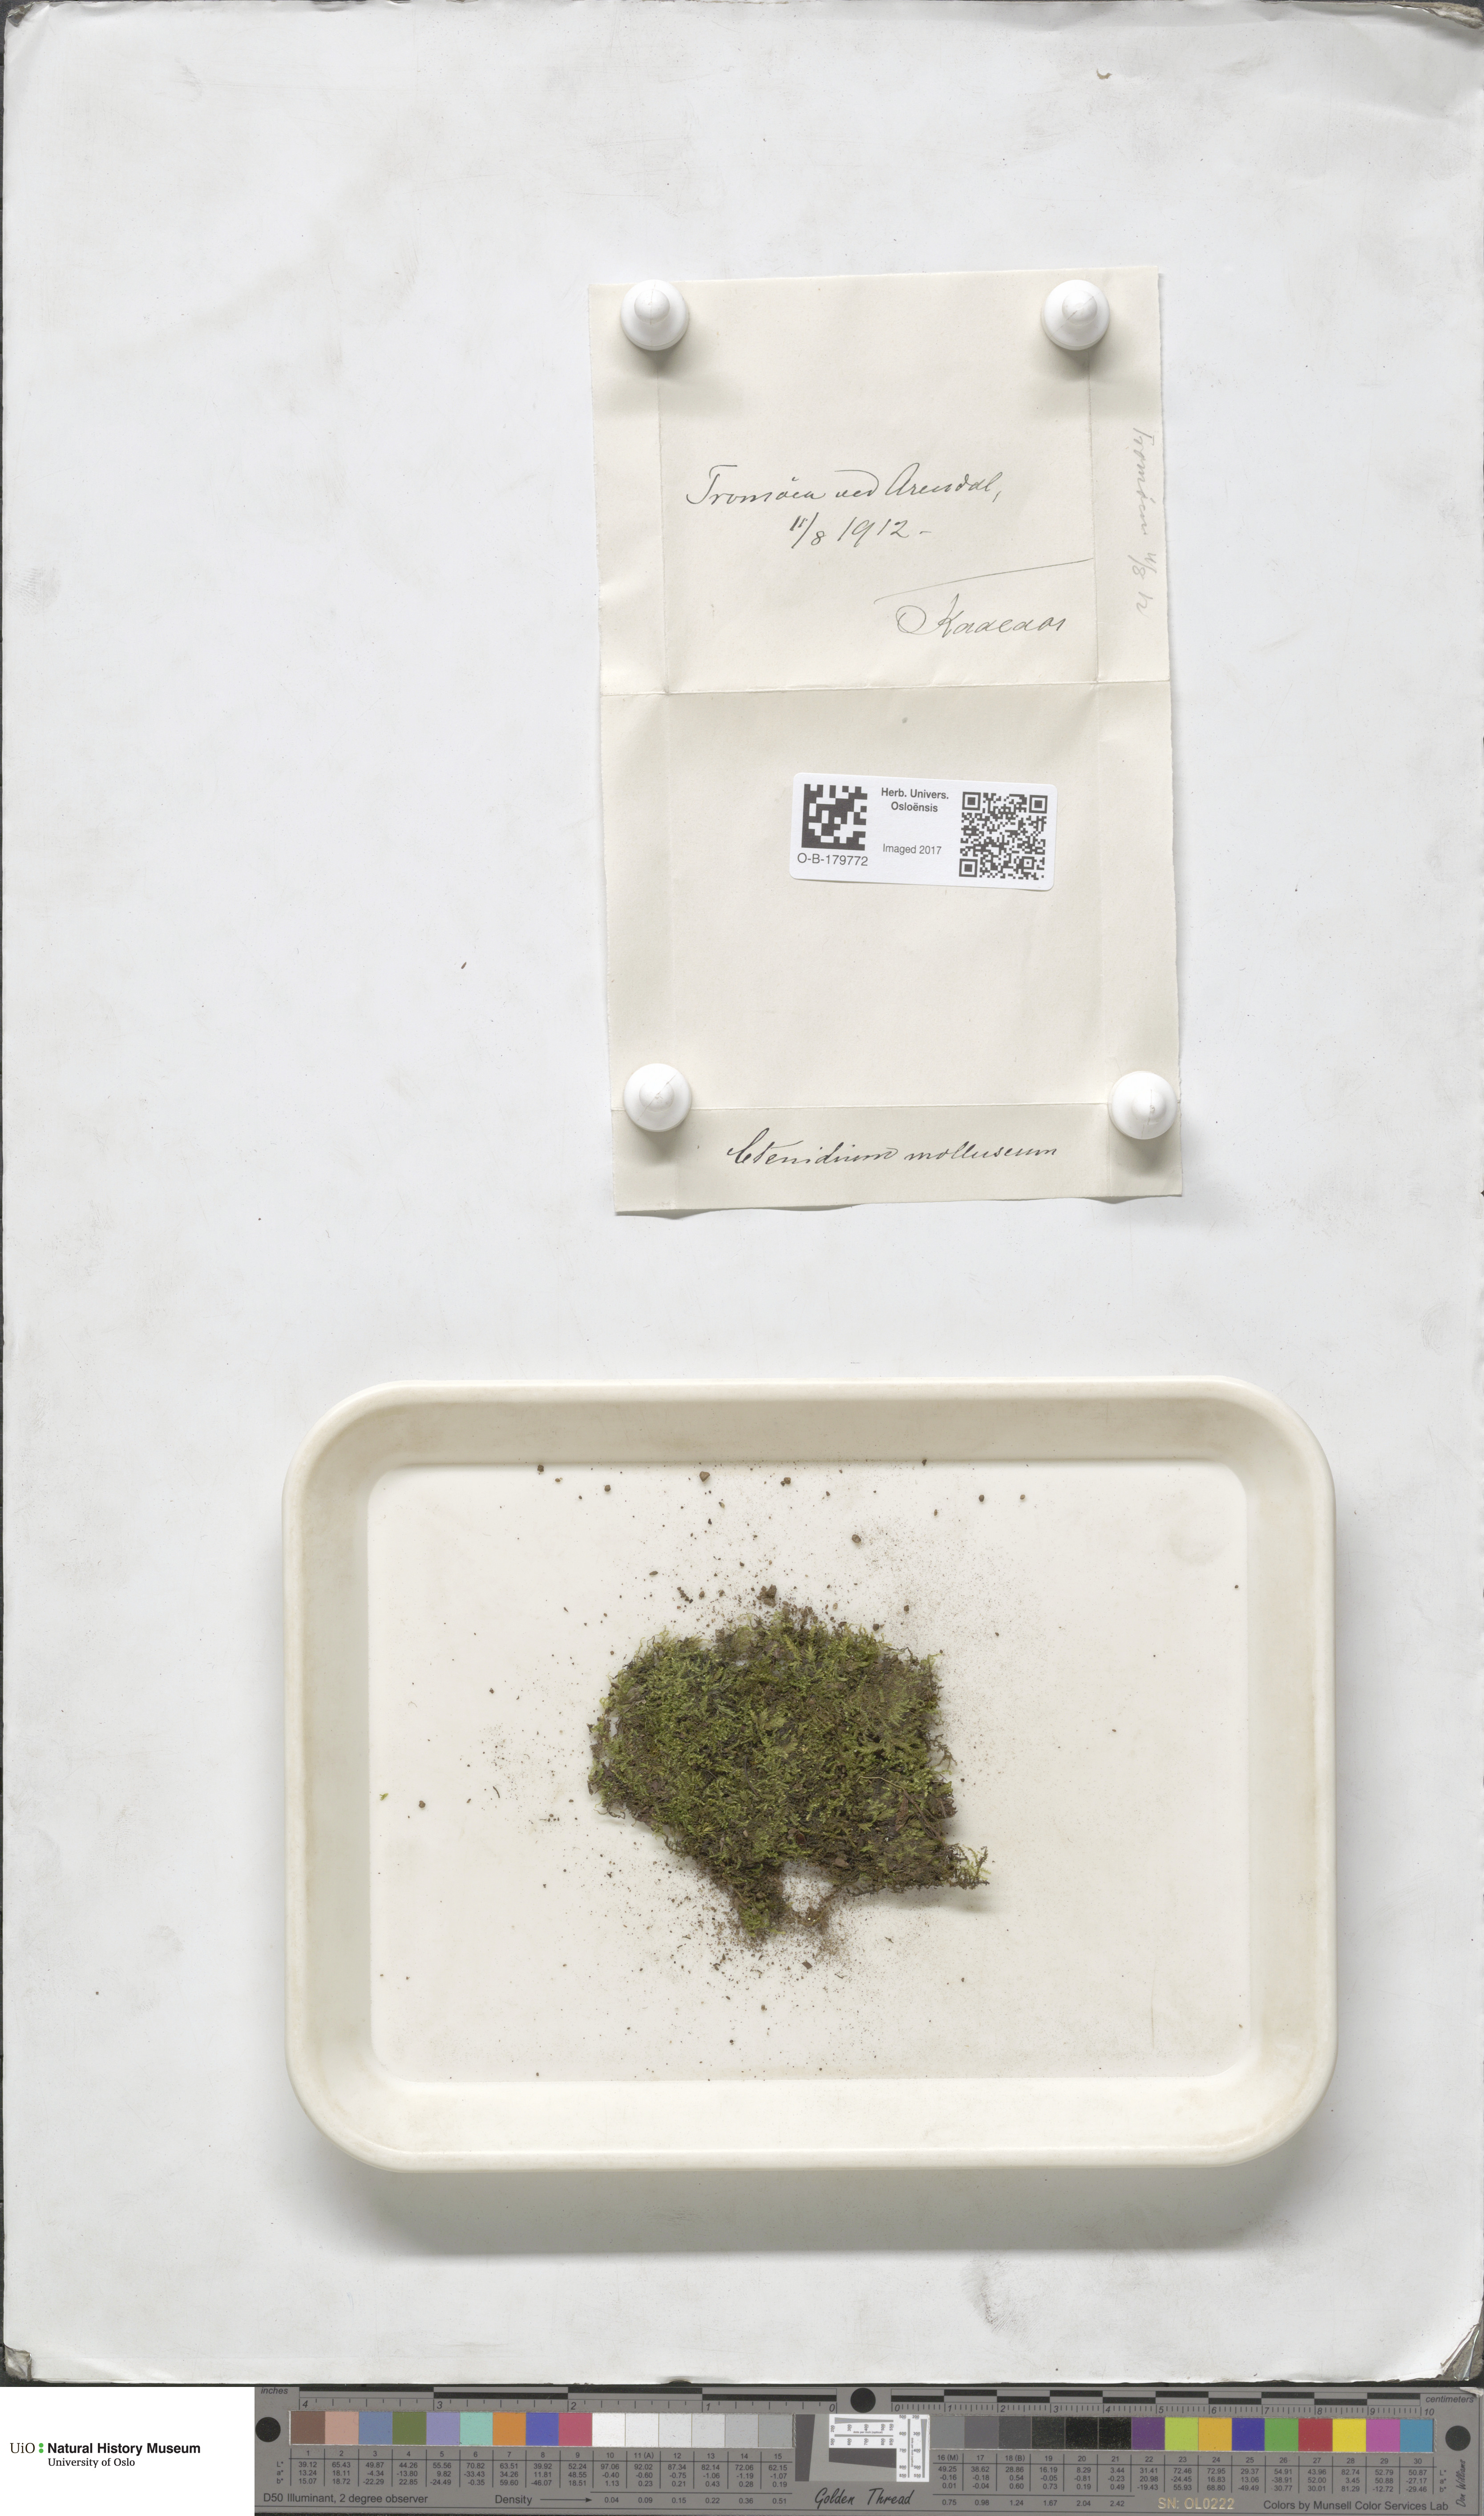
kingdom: Plantae
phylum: Bryophyta
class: Bryopsida
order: Hypnales
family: Myuriaceae
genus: Ctenidium
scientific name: Ctenidium molluscum
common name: Chalk comb-moss
